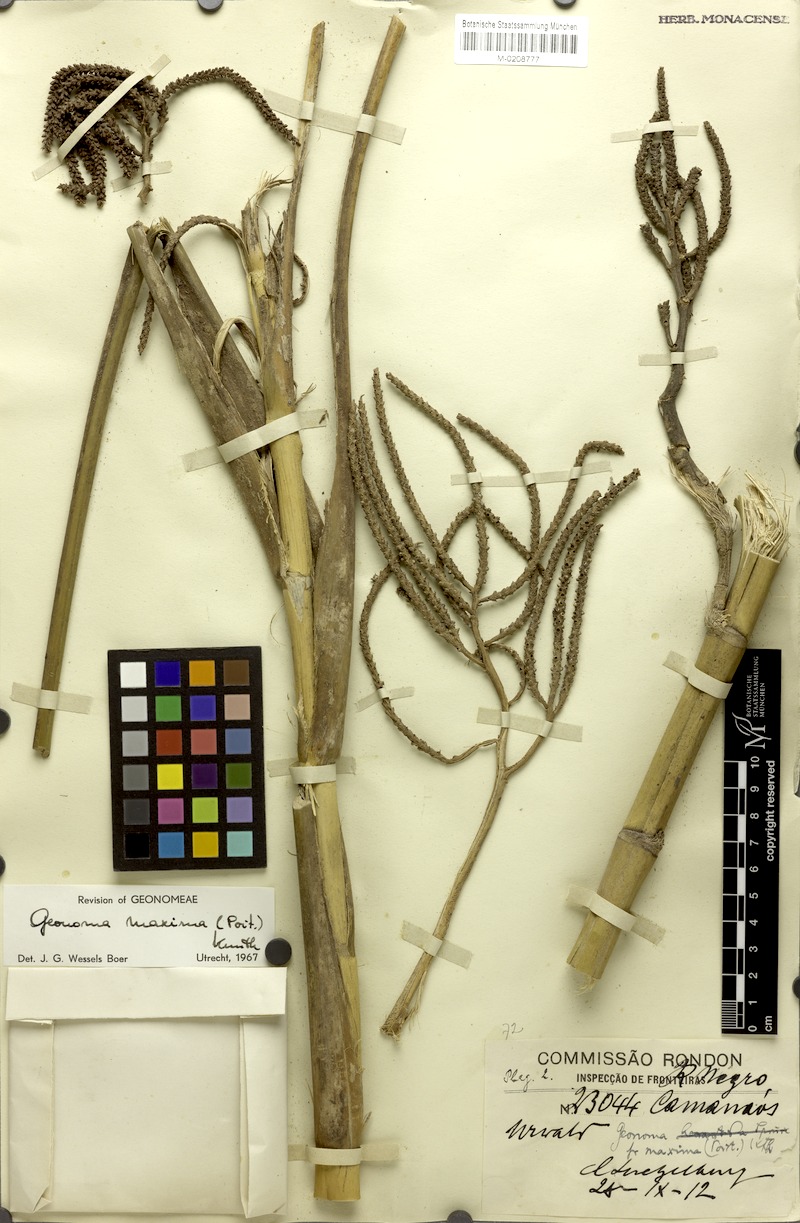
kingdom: Plantae
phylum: Tracheophyta
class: Liliopsida
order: Arecales
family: Arecaceae
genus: Geonoma
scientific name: Geonoma maxima
